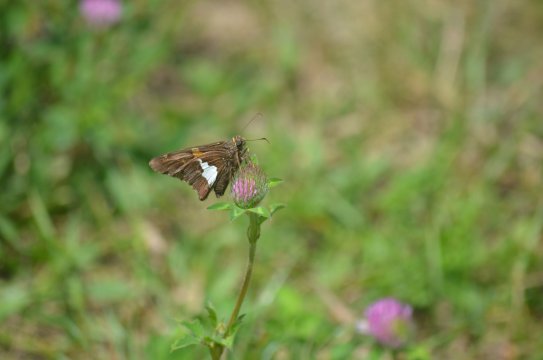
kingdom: Animalia
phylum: Arthropoda
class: Insecta
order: Lepidoptera
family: Hesperiidae
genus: Epargyreus
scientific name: Epargyreus clarus
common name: Silver-spotted Skipper
